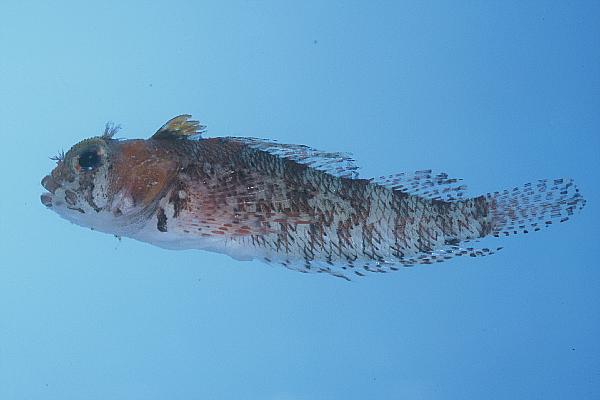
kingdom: Animalia
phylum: Chordata
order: Perciformes
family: Tripterygiidae
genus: Cremnochorites
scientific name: Cremnochorites capensis
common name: Cape triplefin
